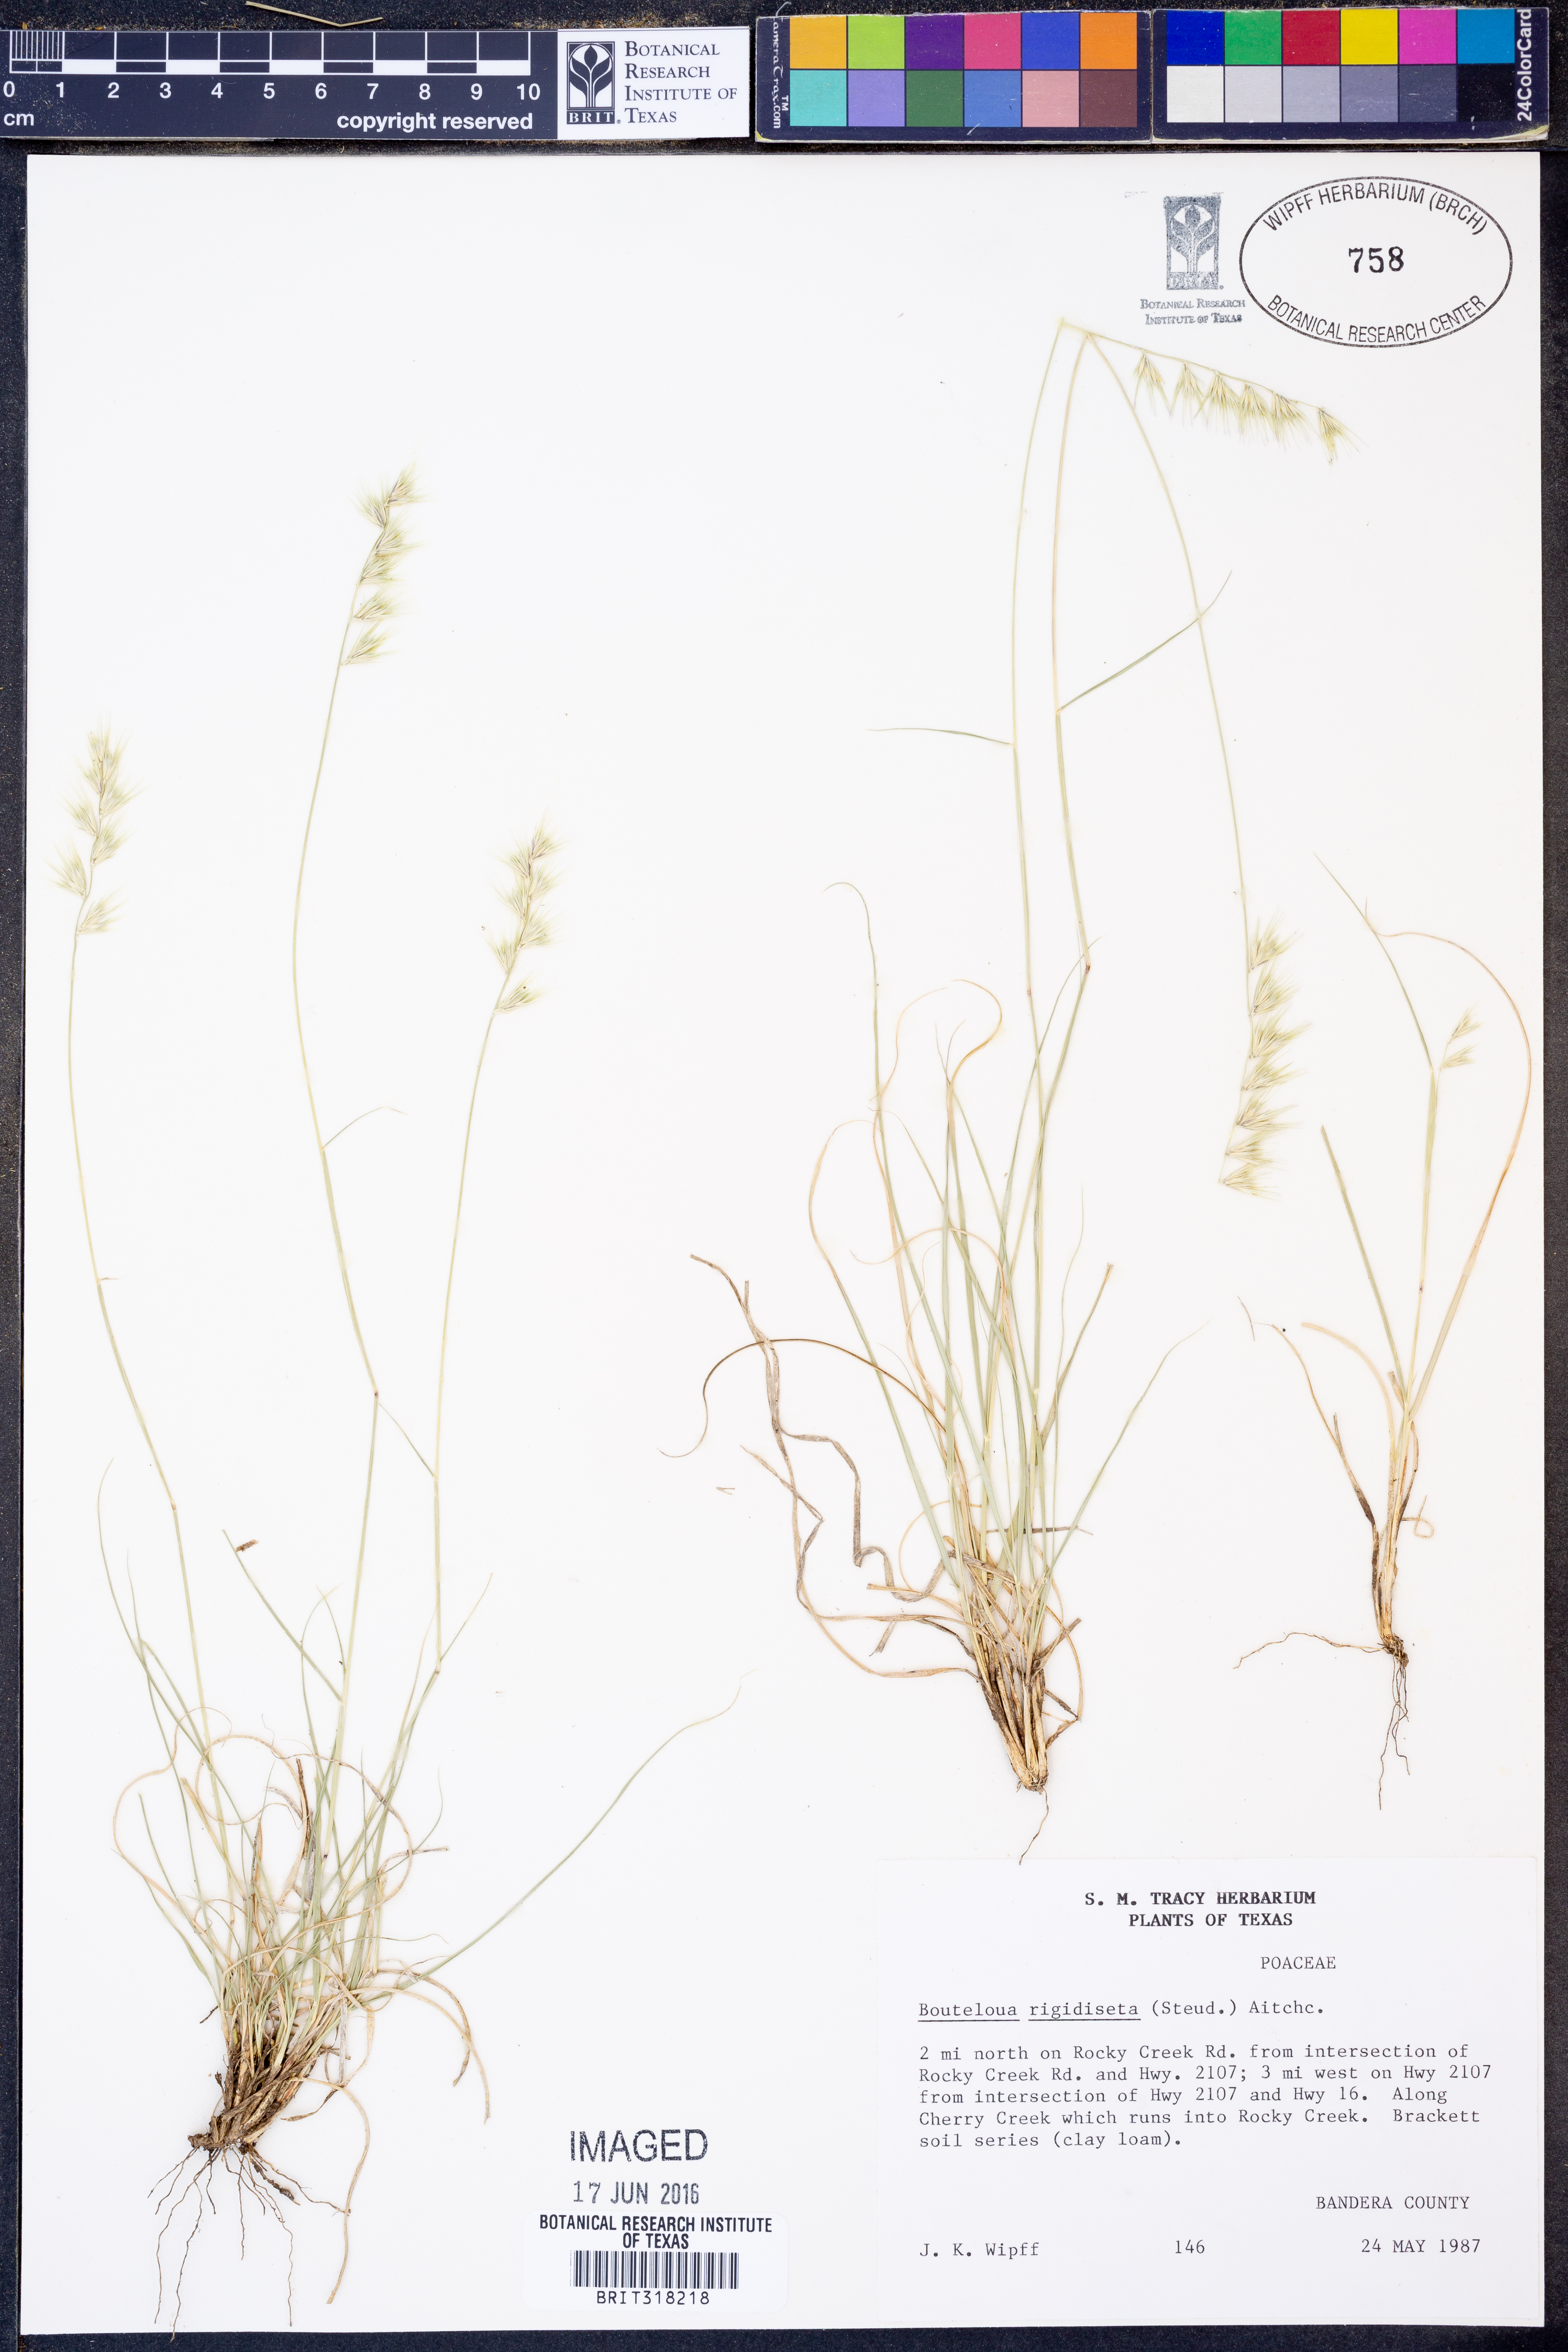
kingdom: Plantae
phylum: Tracheophyta
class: Liliopsida
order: Poales
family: Poaceae
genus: Bouteloua
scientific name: Bouteloua rigidiseta
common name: Texas grama
